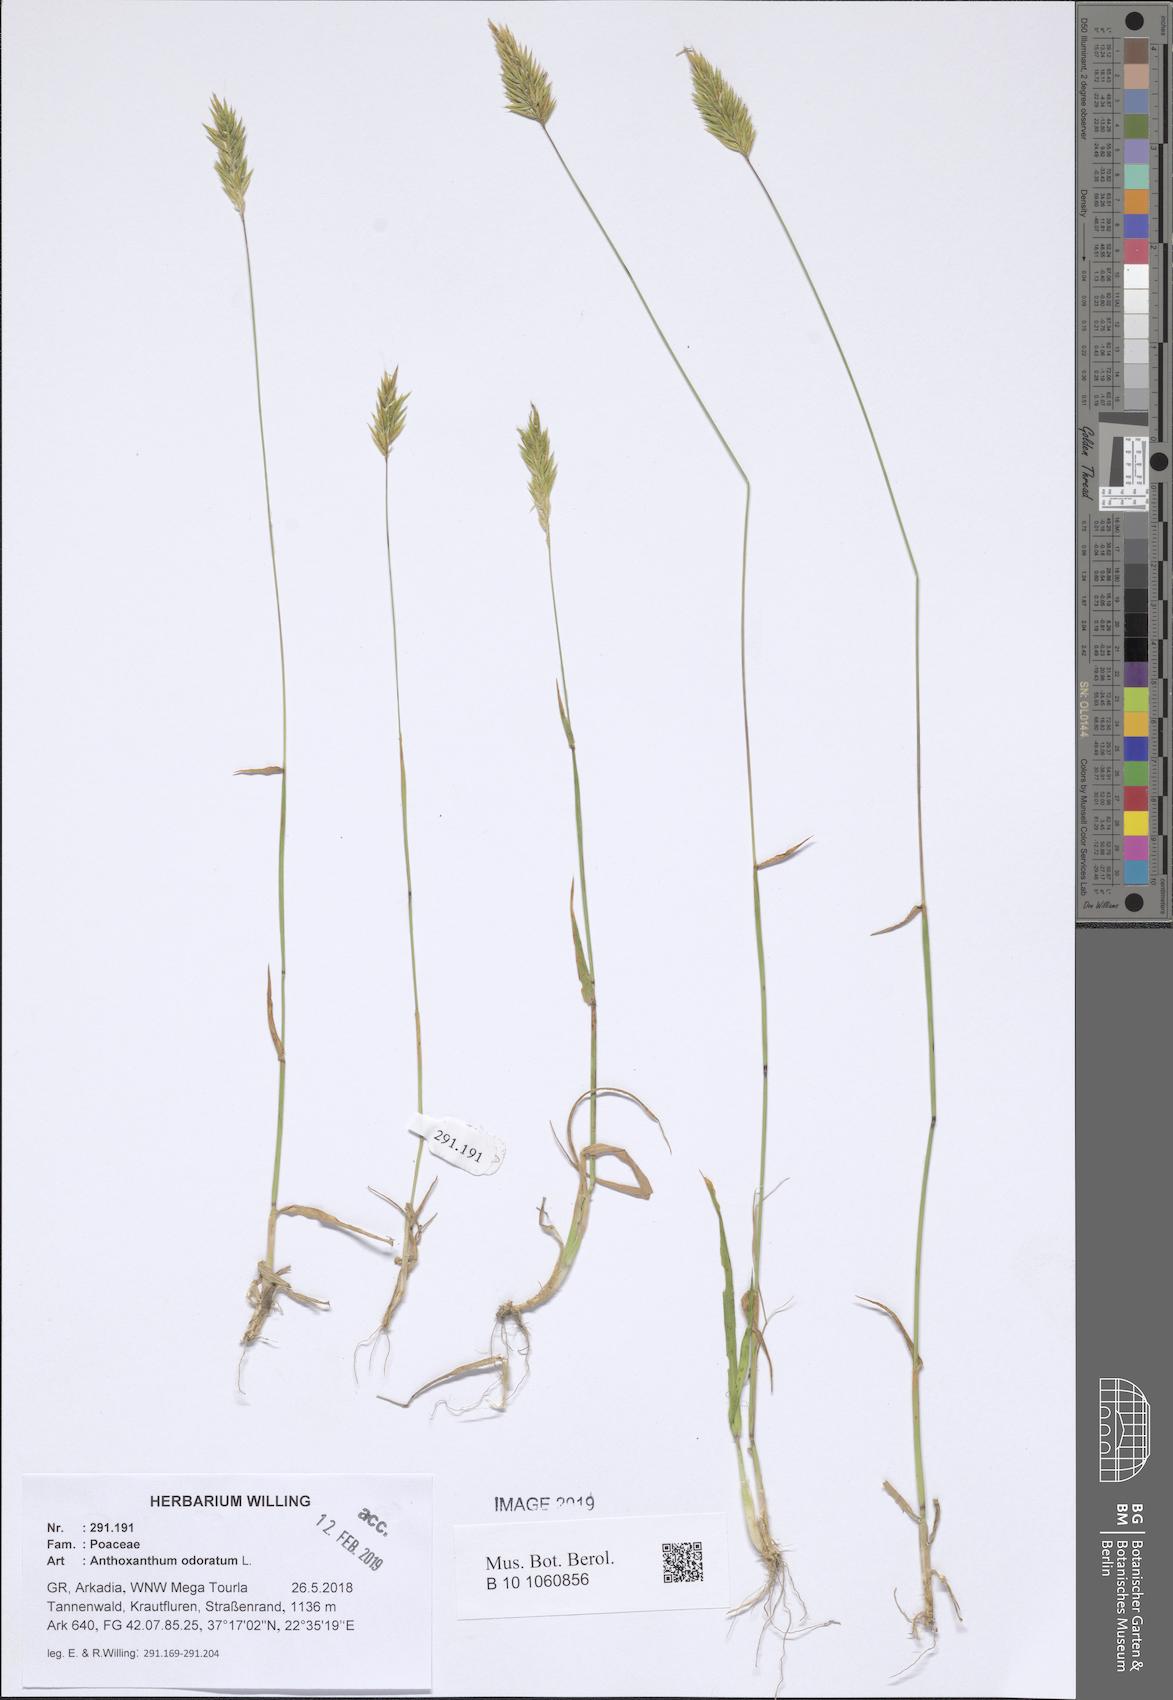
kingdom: Plantae
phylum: Tracheophyta
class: Liliopsida
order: Poales
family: Poaceae
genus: Anthoxanthum
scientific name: Anthoxanthum odoratum
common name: Sweet vernalgrass
